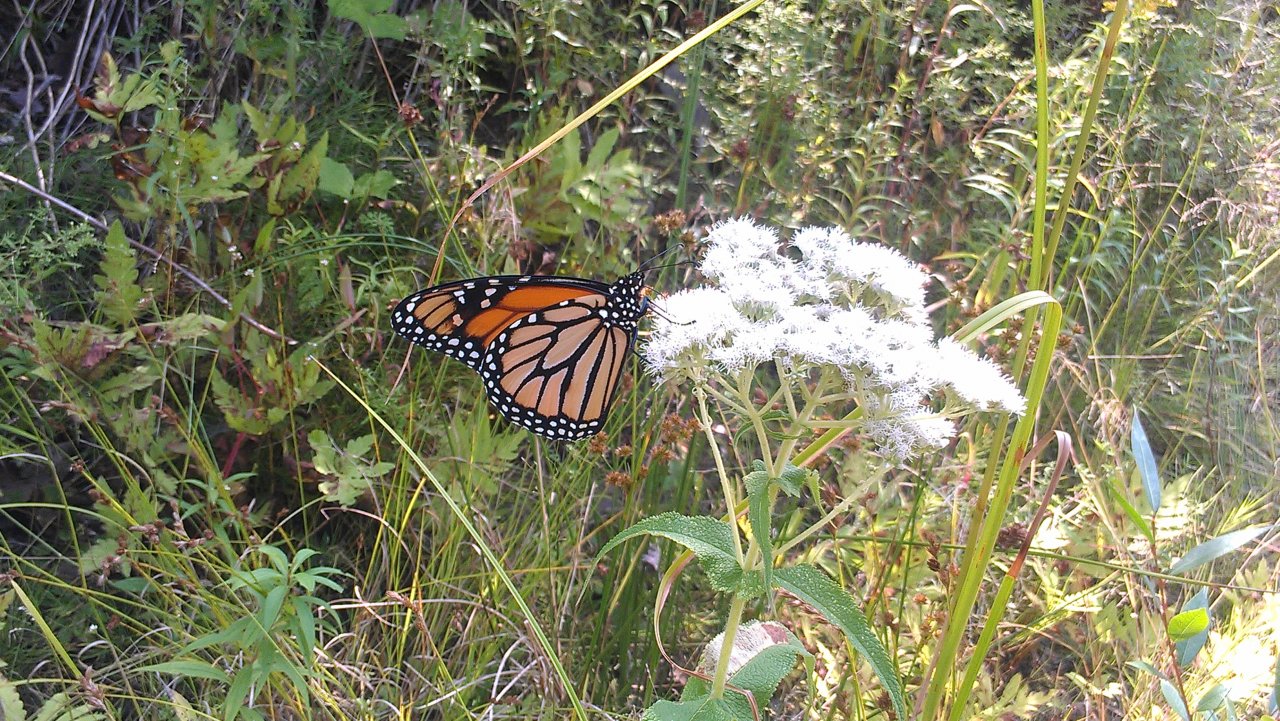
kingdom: Animalia
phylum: Arthropoda
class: Insecta
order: Lepidoptera
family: Nymphalidae
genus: Danaus
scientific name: Danaus plexippus
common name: Monarch
